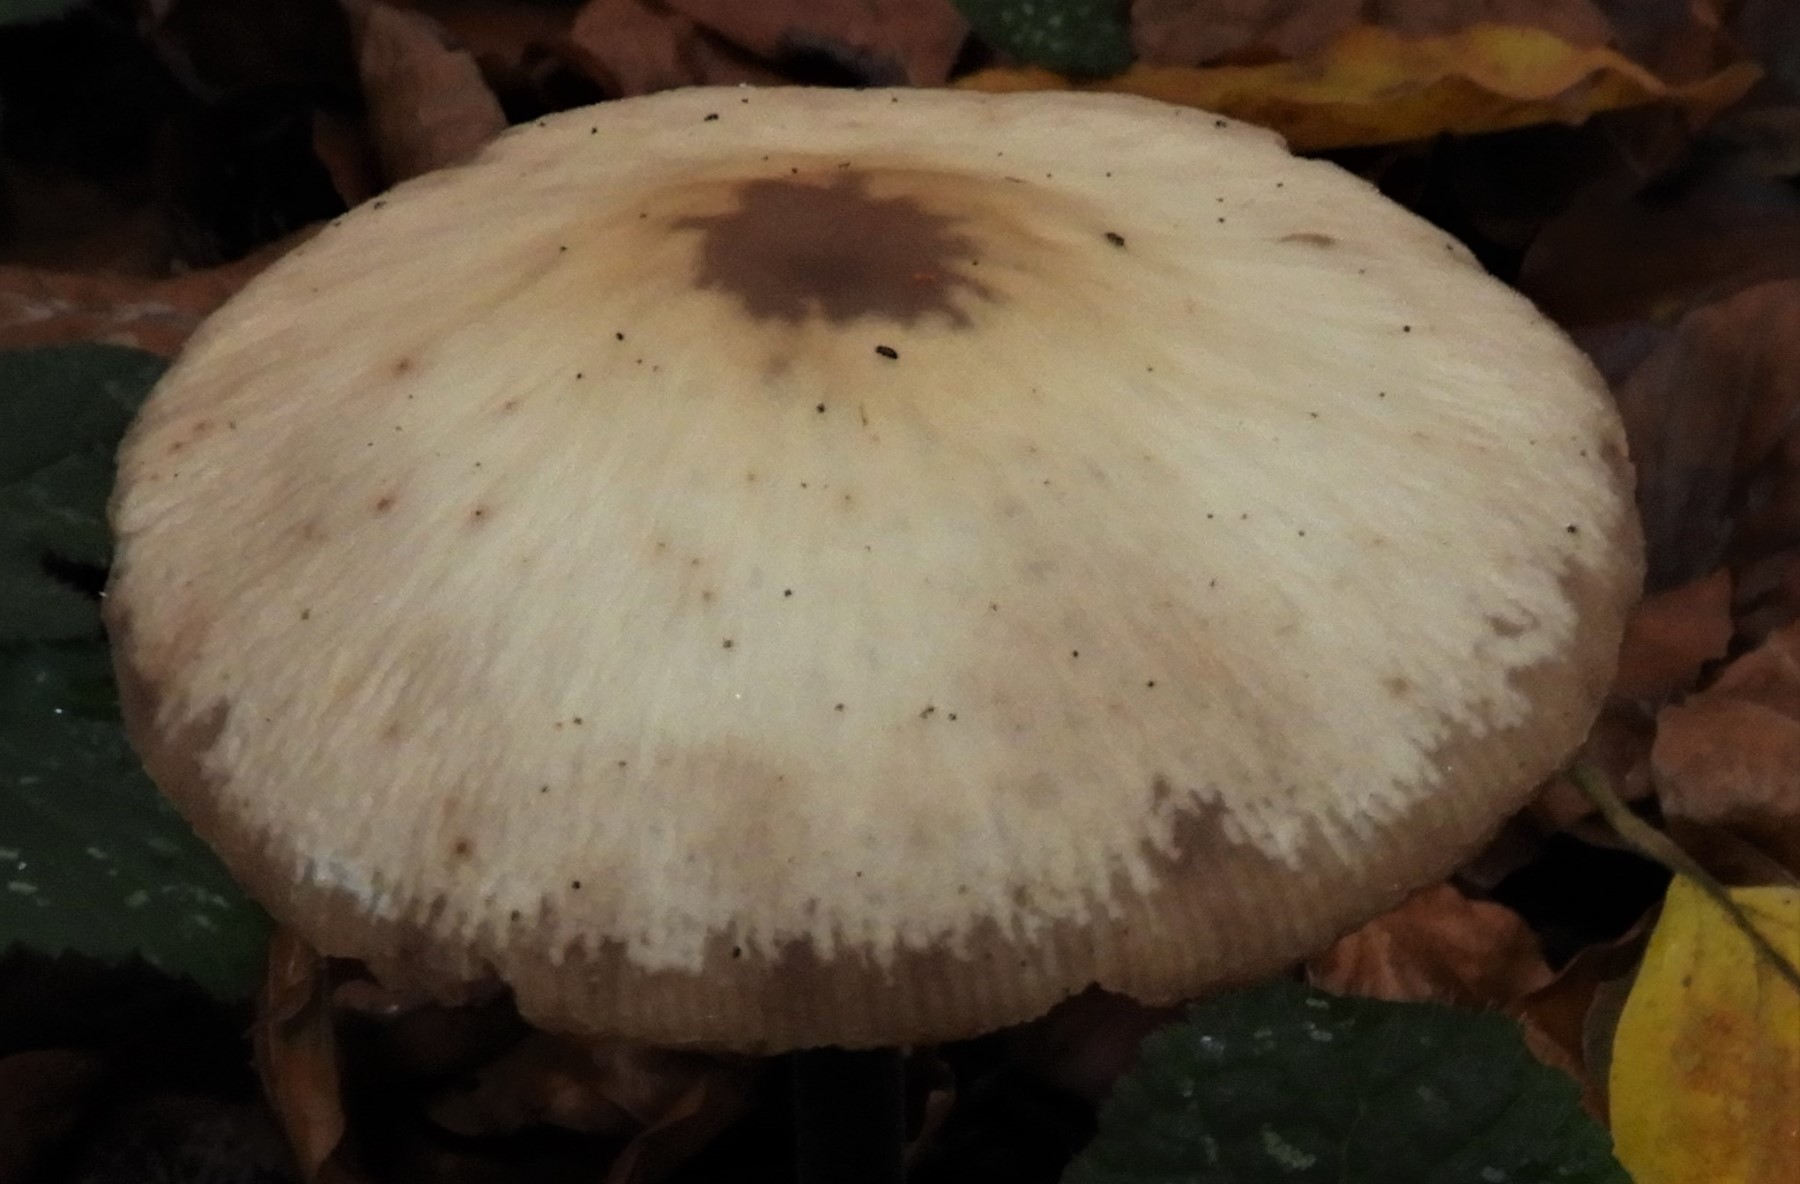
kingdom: Fungi
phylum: Basidiomycota
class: Agaricomycetes
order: Agaricales
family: Omphalotaceae
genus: Mycetinis
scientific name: Mycetinis alliaceus
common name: stor løghat
